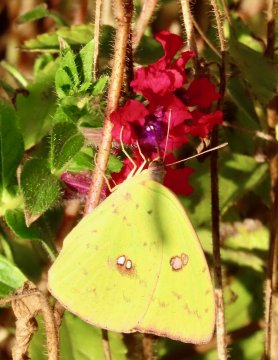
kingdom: Animalia
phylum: Arthropoda
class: Insecta
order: Lepidoptera
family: Pieridae
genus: Phoebis
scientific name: Phoebis sennae
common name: Cloudless Sulphur
